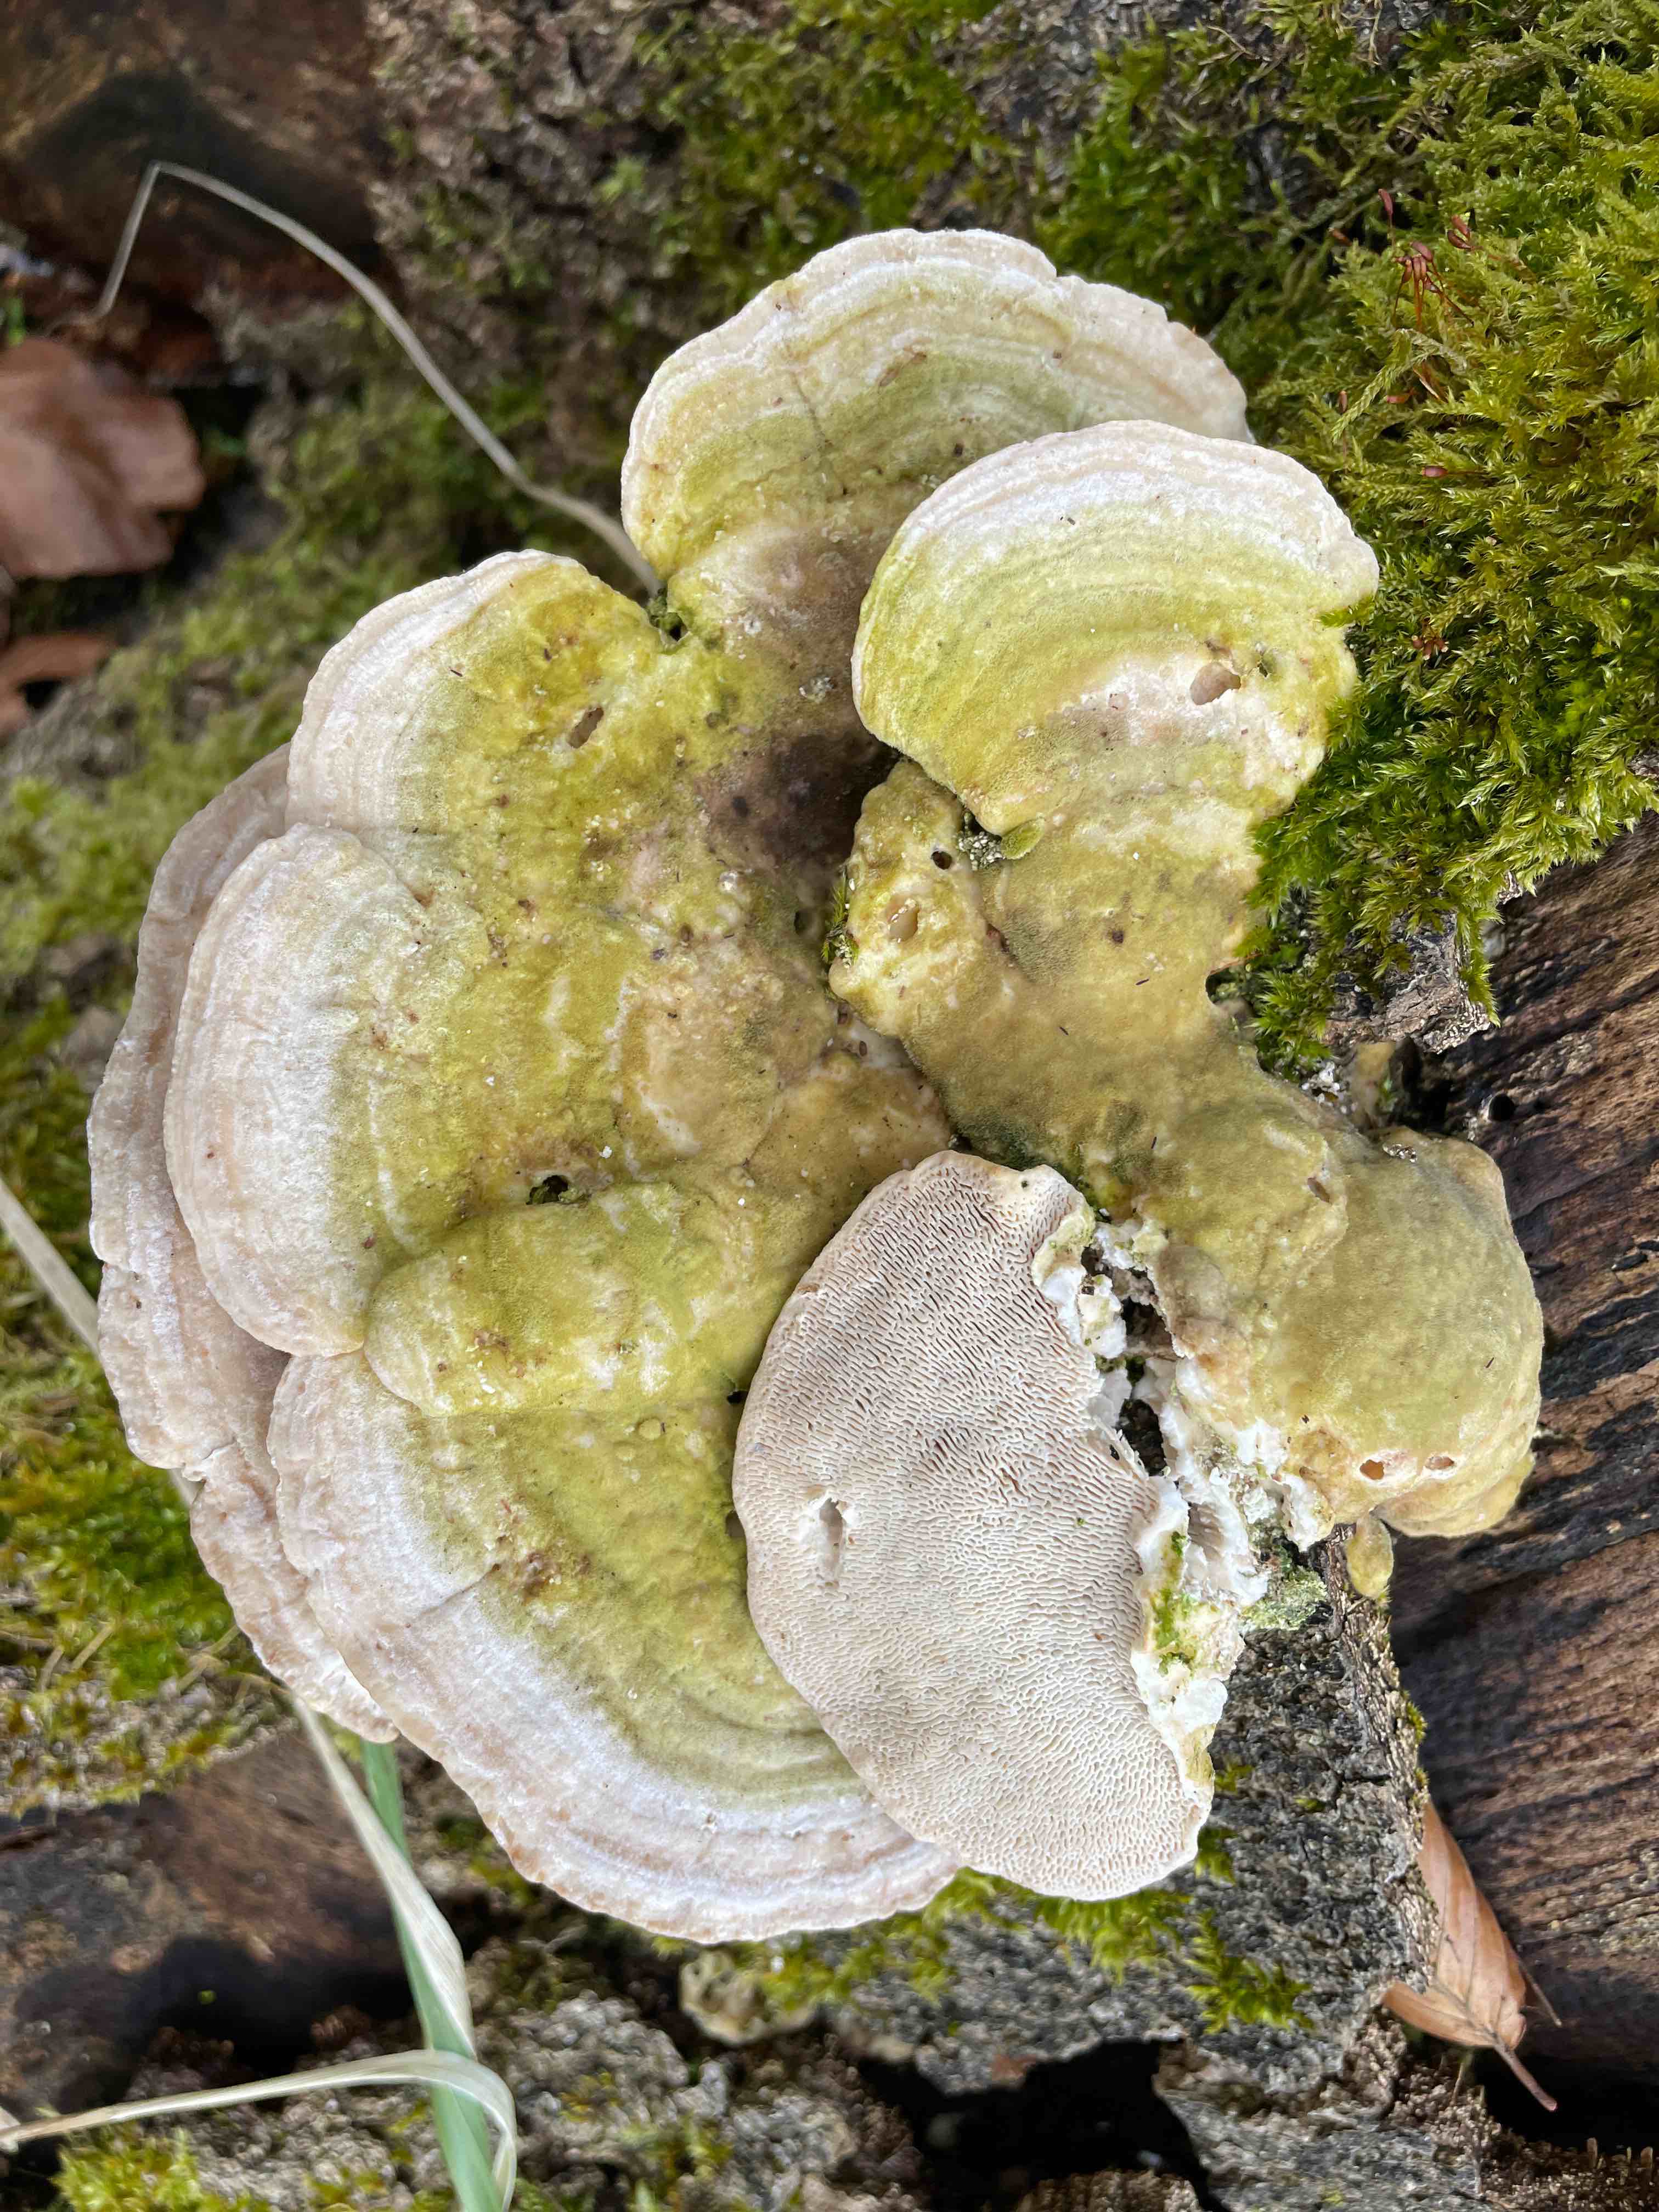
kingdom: Fungi
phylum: Basidiomycota
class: Agaricomycetes
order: Polyporales
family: Polyporaceae
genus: Trametes
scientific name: Trametes gibbosa
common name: puklet læderporesvamp
